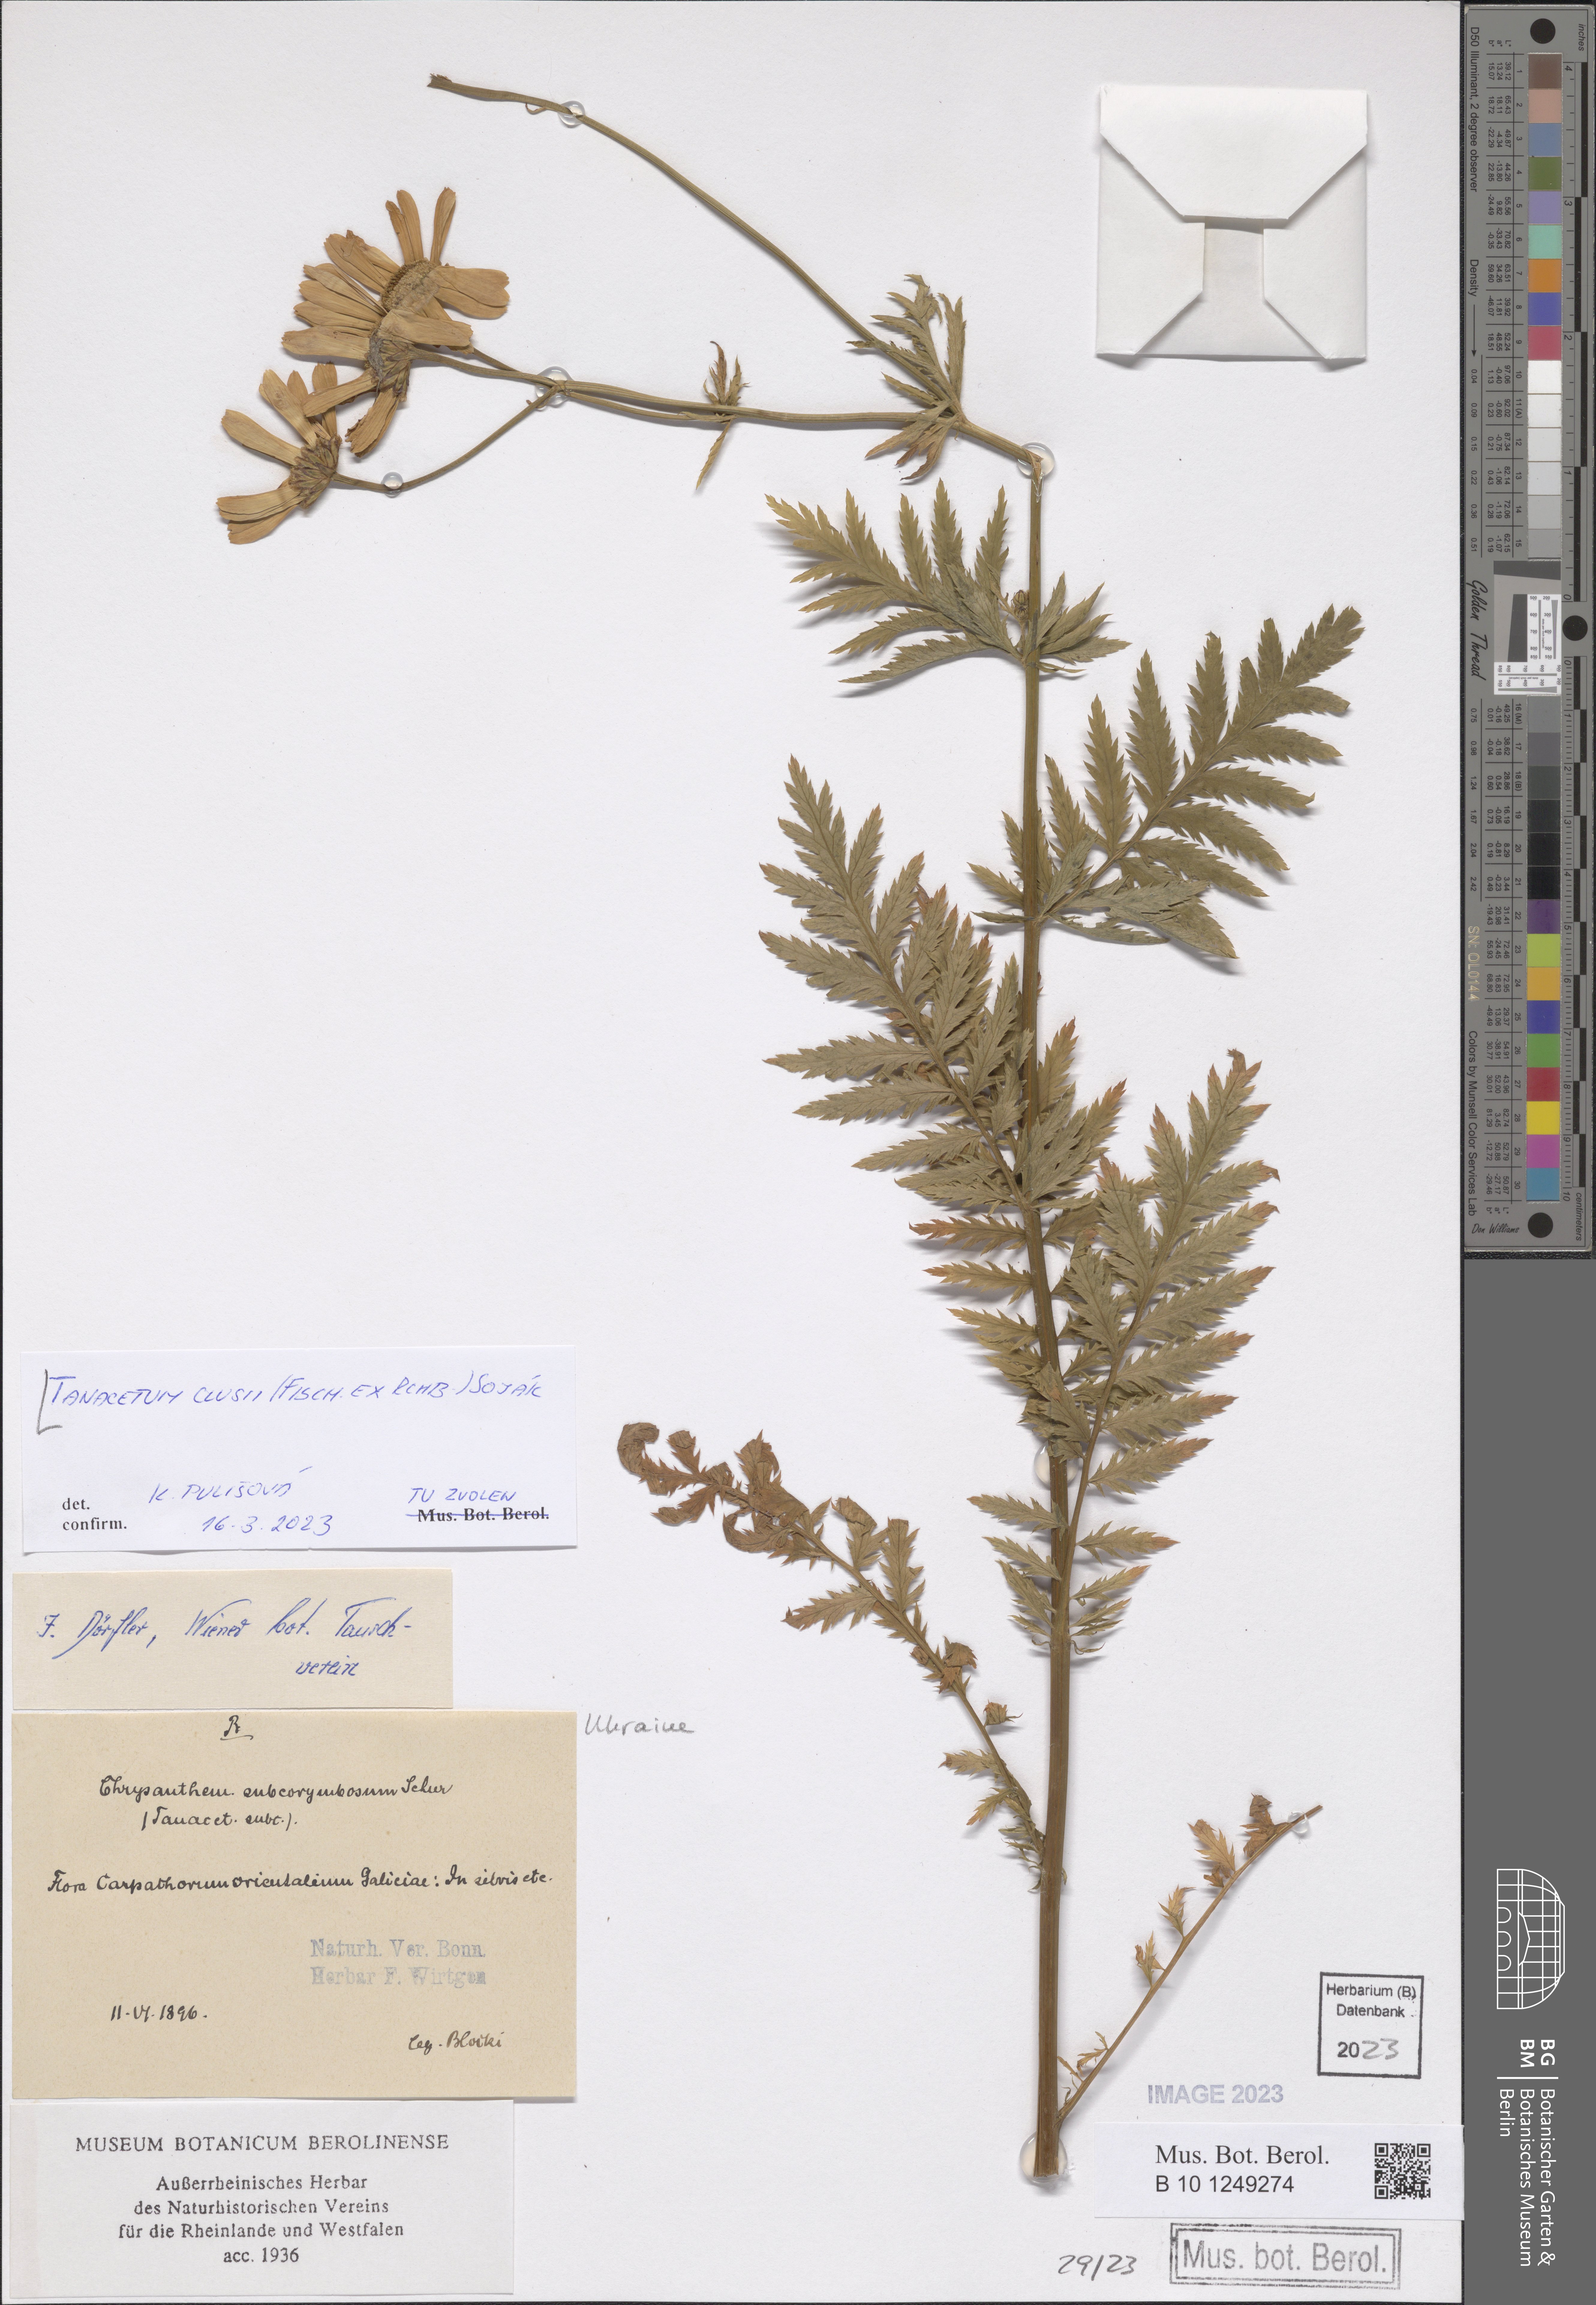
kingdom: Plantae
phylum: Tracheophyta
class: Magnoliopsida
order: Asterales
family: Asteraceae
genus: Tanacetum
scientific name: Tanacetum corymbosum
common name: Scentless feverfew
